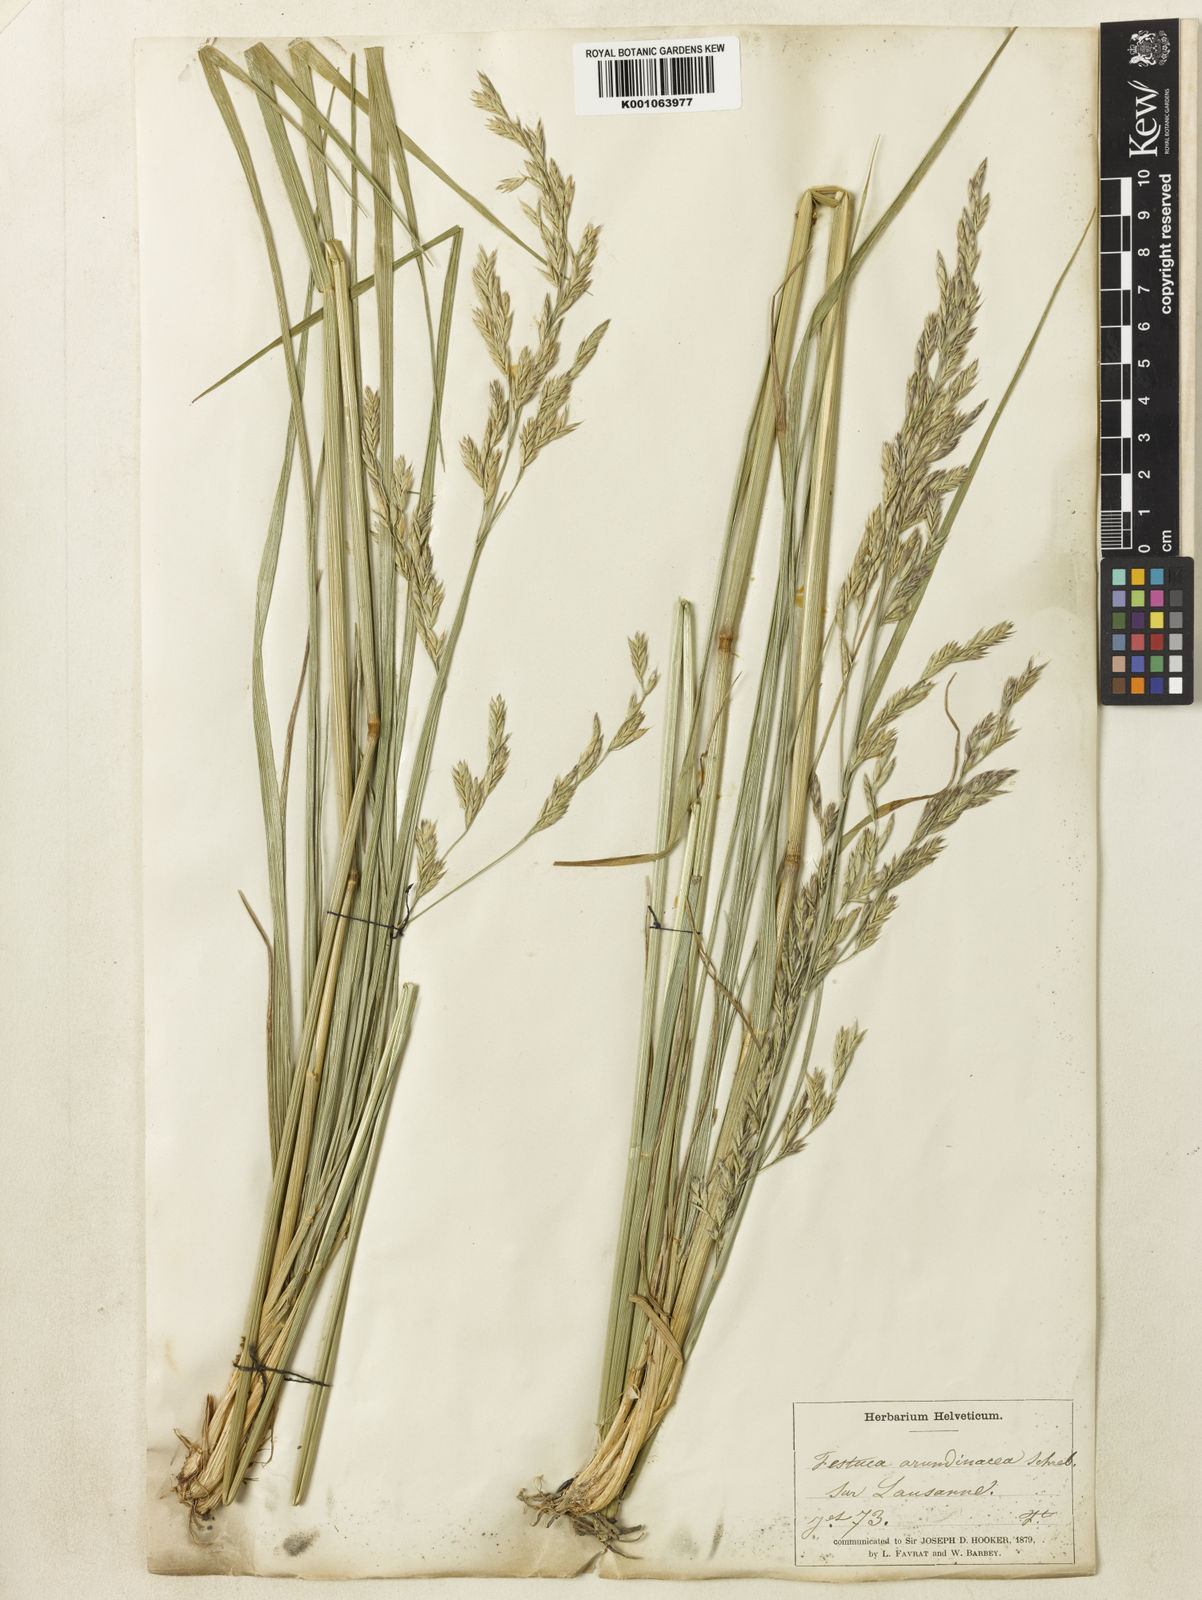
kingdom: Plantae
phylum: Tracheophyta
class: Liliopsida
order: Poales
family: Poaceae
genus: Lolium
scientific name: Lolium arundinaceum
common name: Reed fescue
